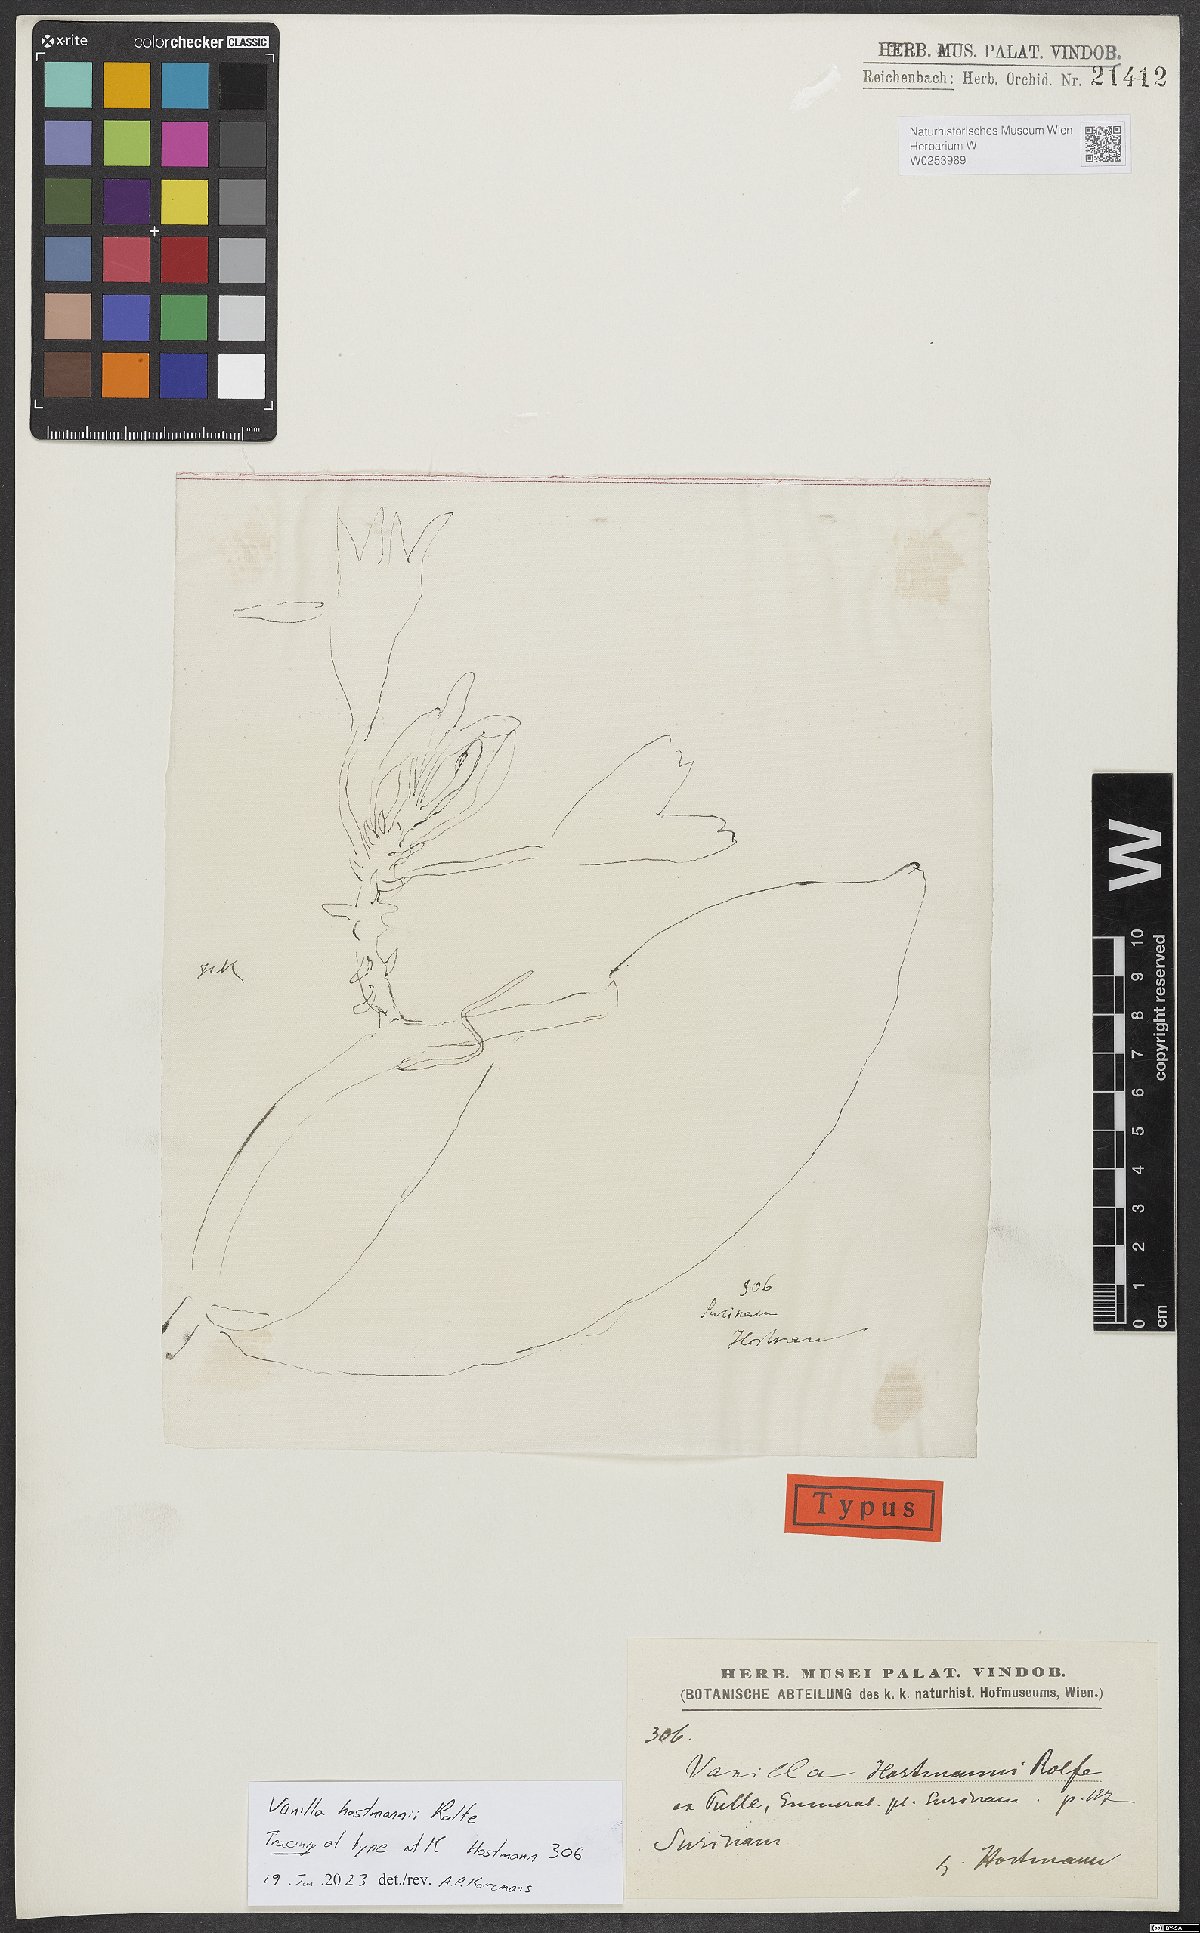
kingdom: Plantae
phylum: Tracheophyta
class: Liliopsida
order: Asparagales
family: Orchidaceae
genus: Vanilla
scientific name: Vanilla
